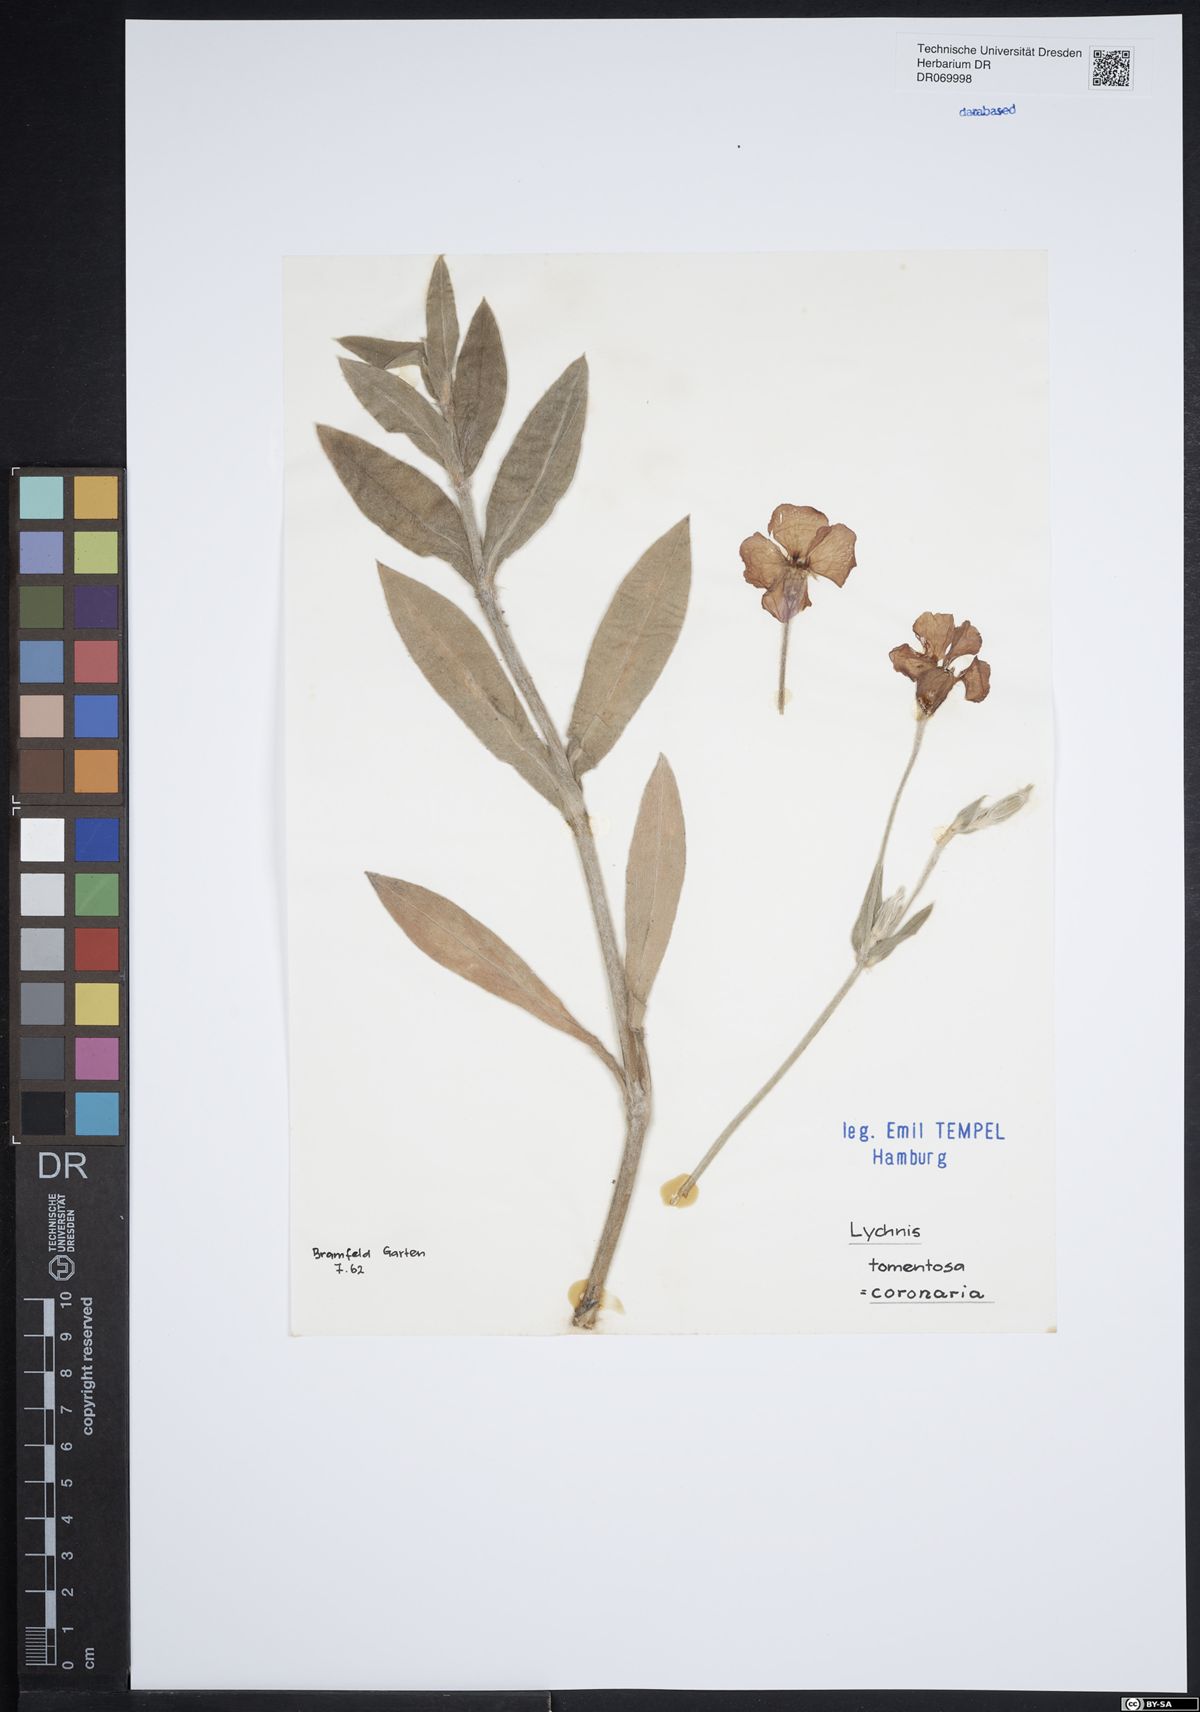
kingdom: Plantae
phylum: Tracheophyta
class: Magnoliopsida
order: Caryophyllales
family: Caryophyllaceae
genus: Silene
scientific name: Silene coronaria
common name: Rose campion
